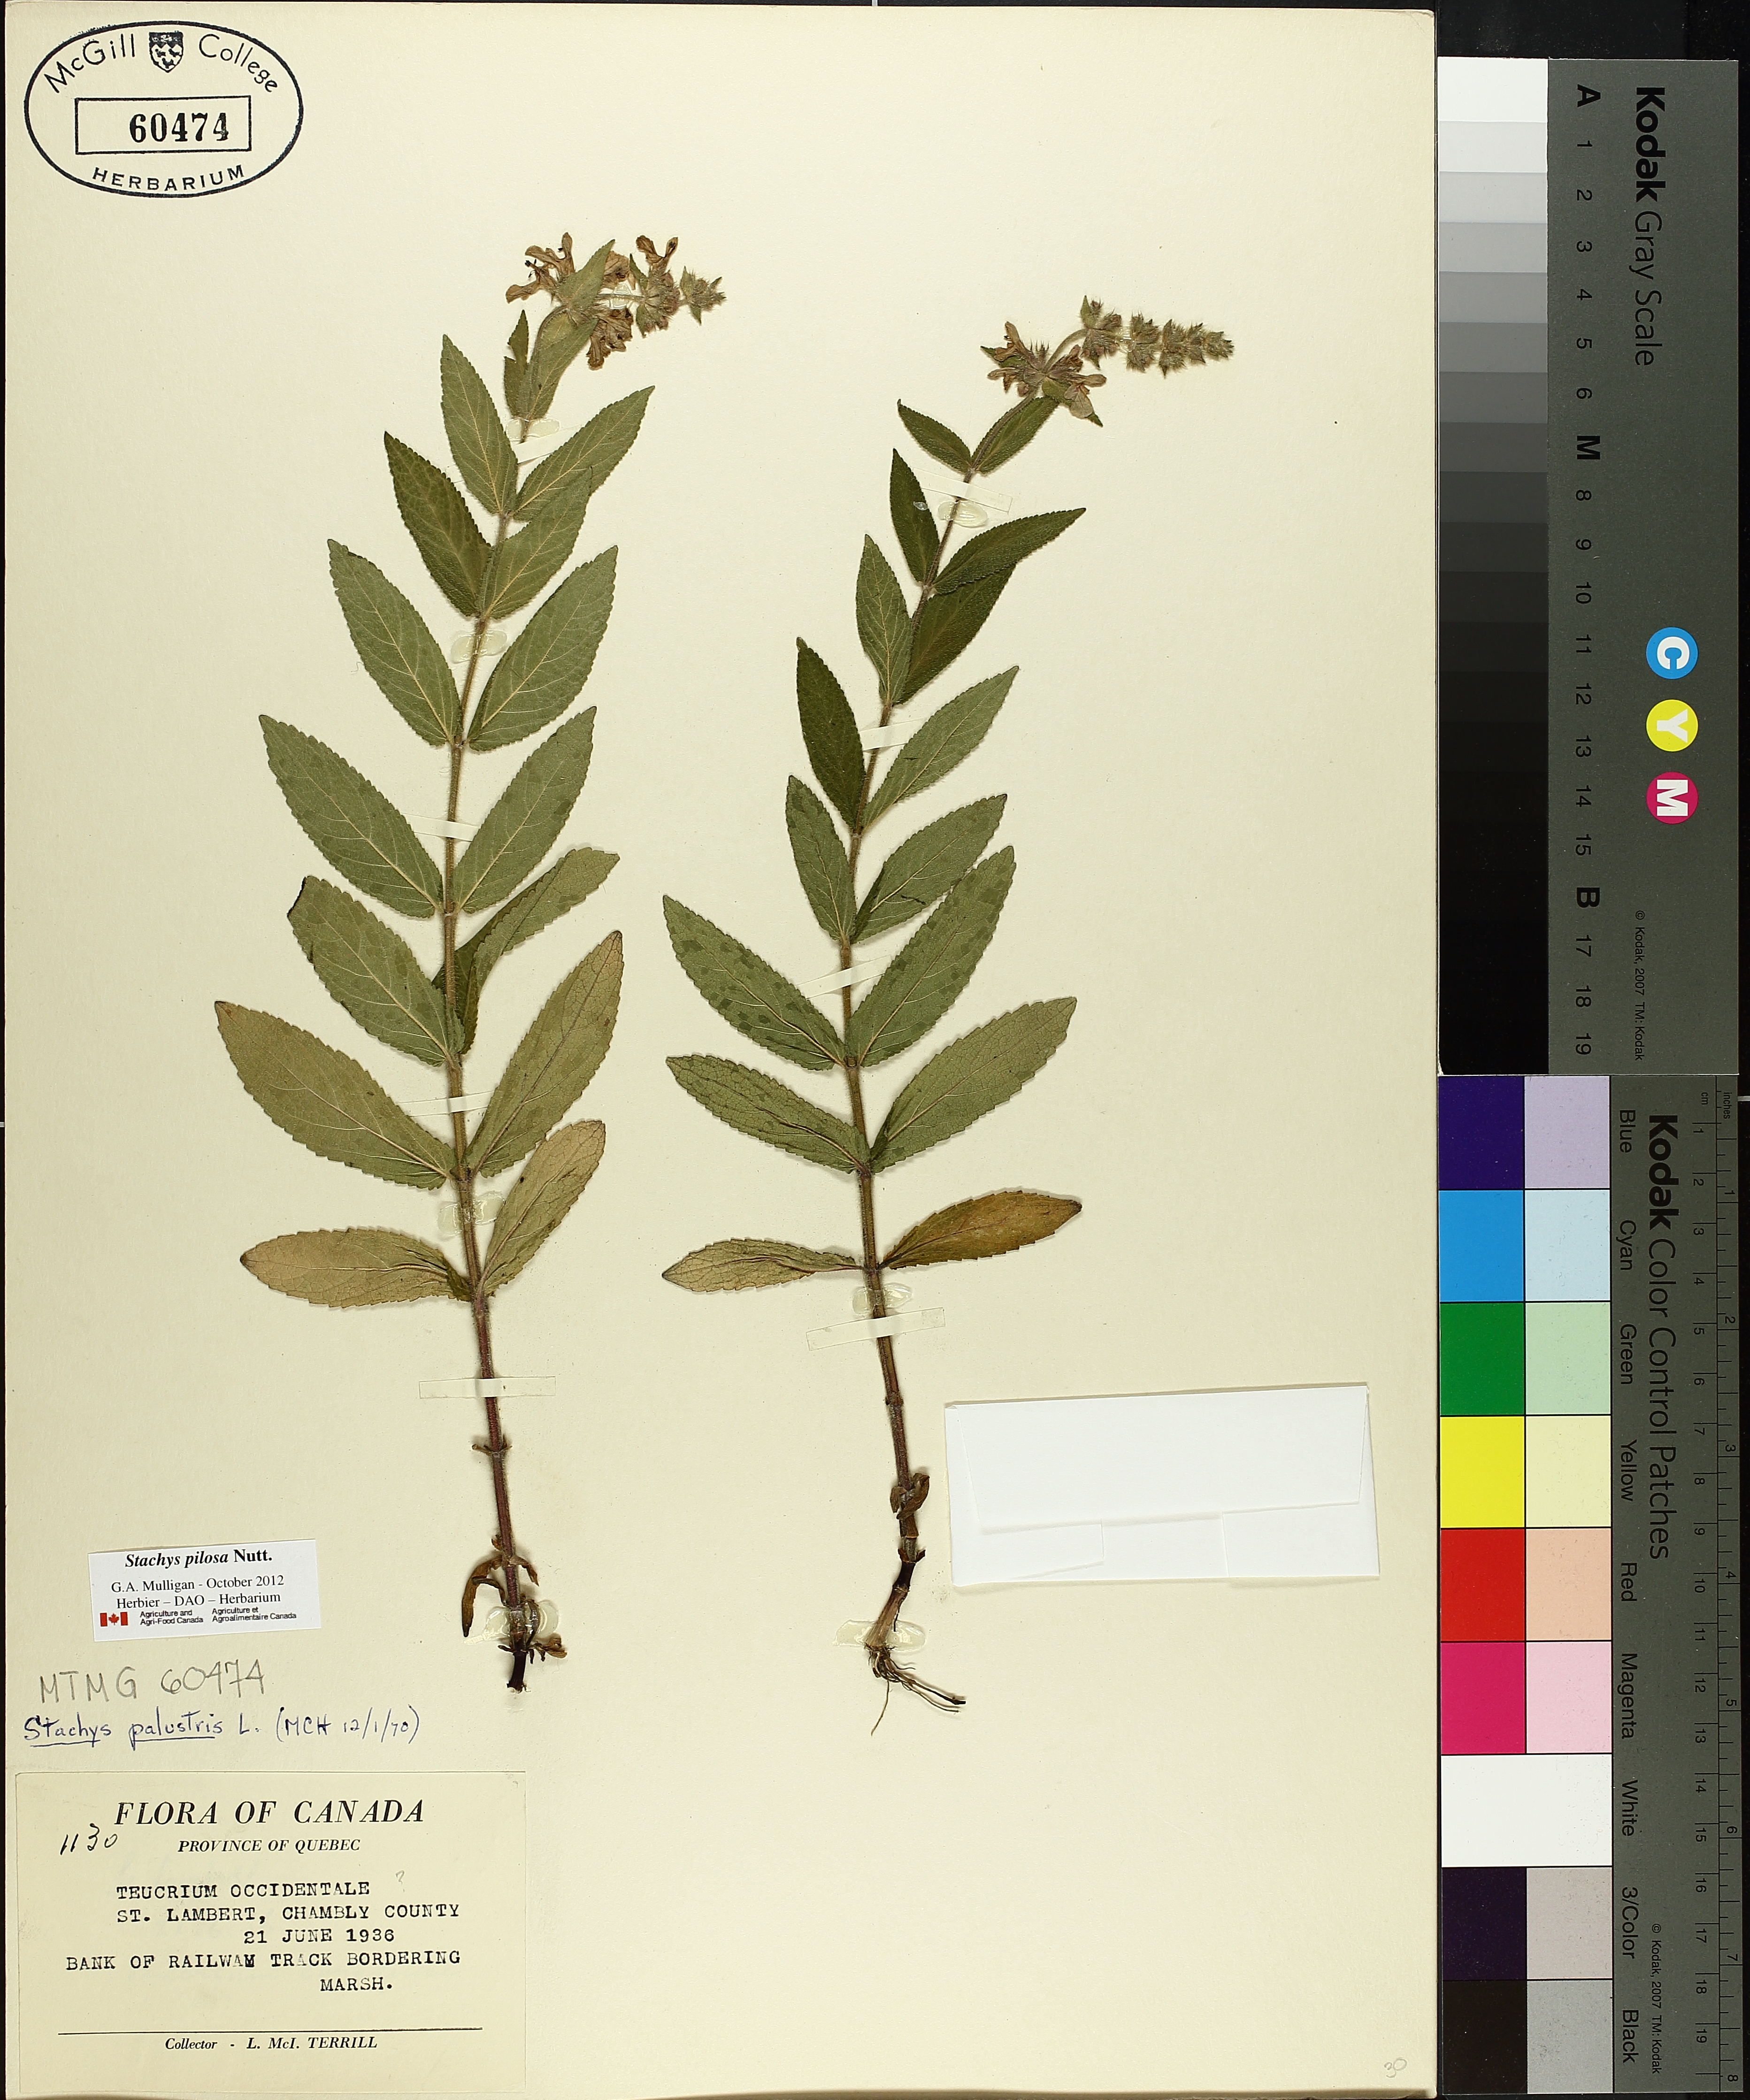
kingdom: Plantae
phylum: Tracheophyta
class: Magnoliopsida
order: Lamiales
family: Lamiaceae
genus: Stachys
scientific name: Stachys palustris
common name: Marsh woundwort
